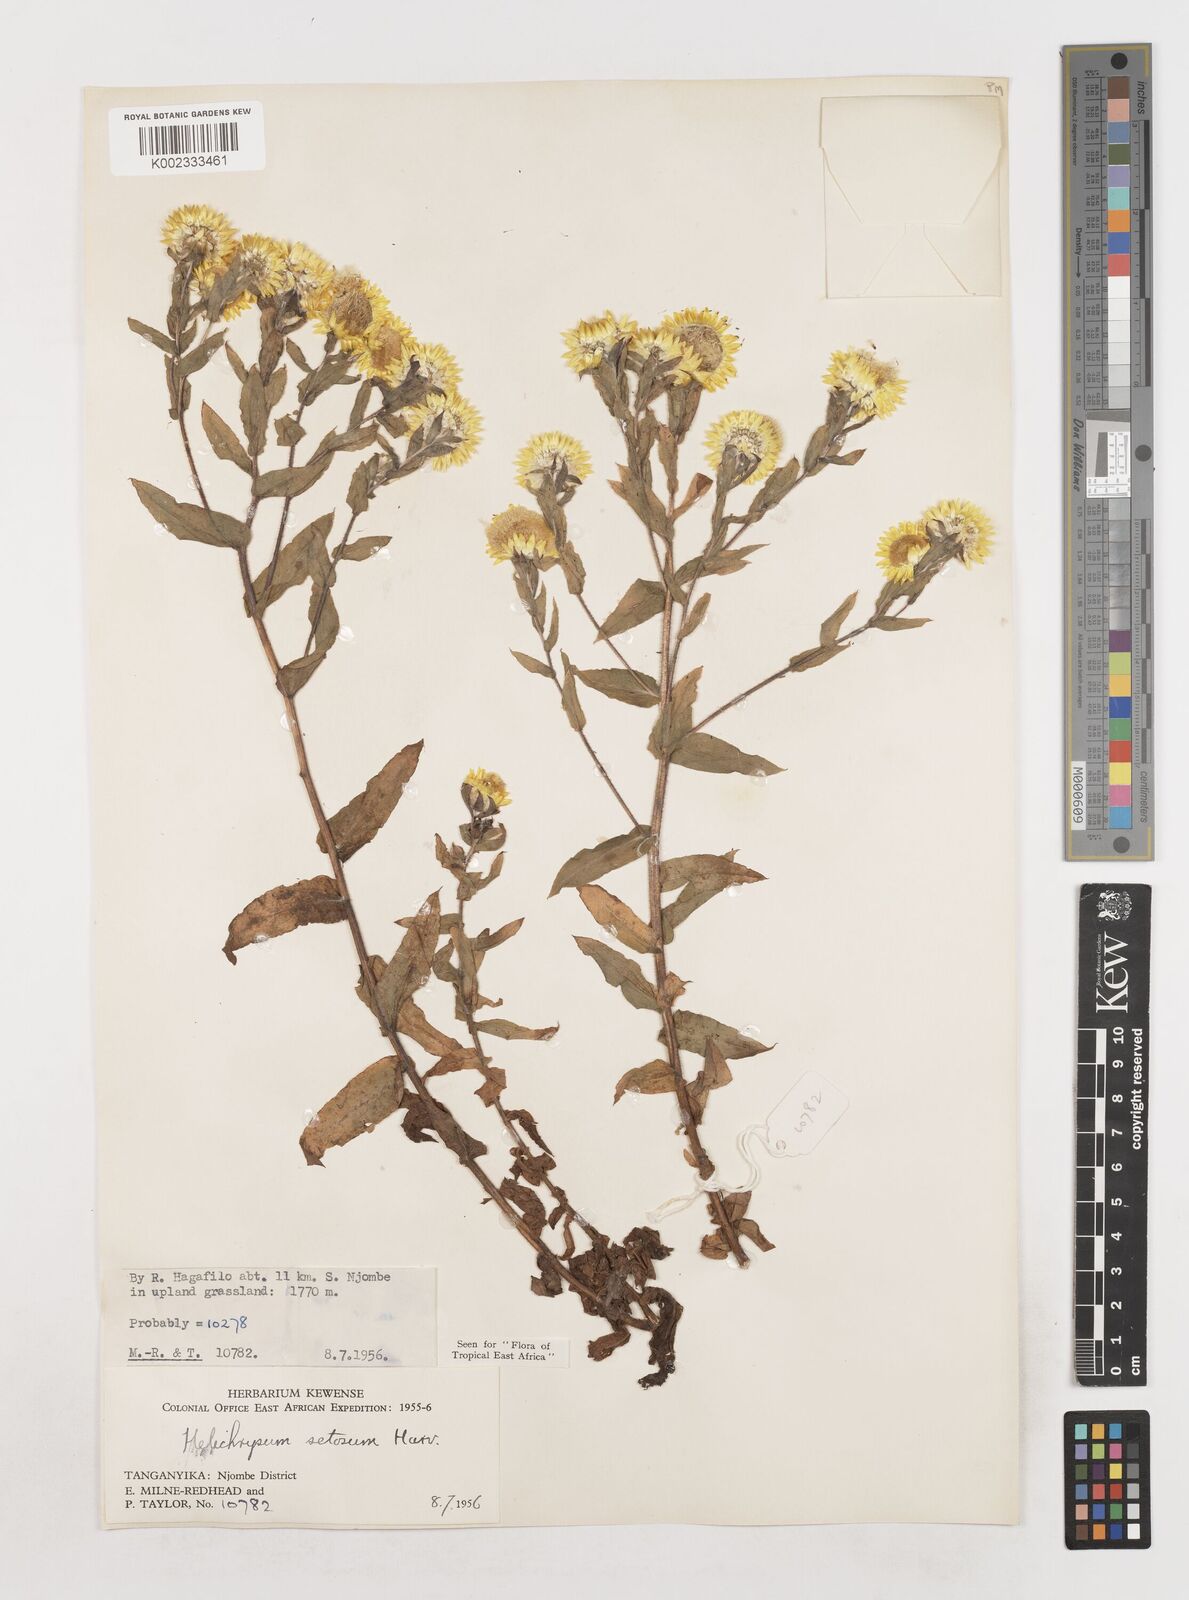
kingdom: Plantae
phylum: Tracheophyta
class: Magnoliopsida
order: Asterales
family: Asteraceae
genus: Helichrysum
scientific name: Helichrysum setosum
